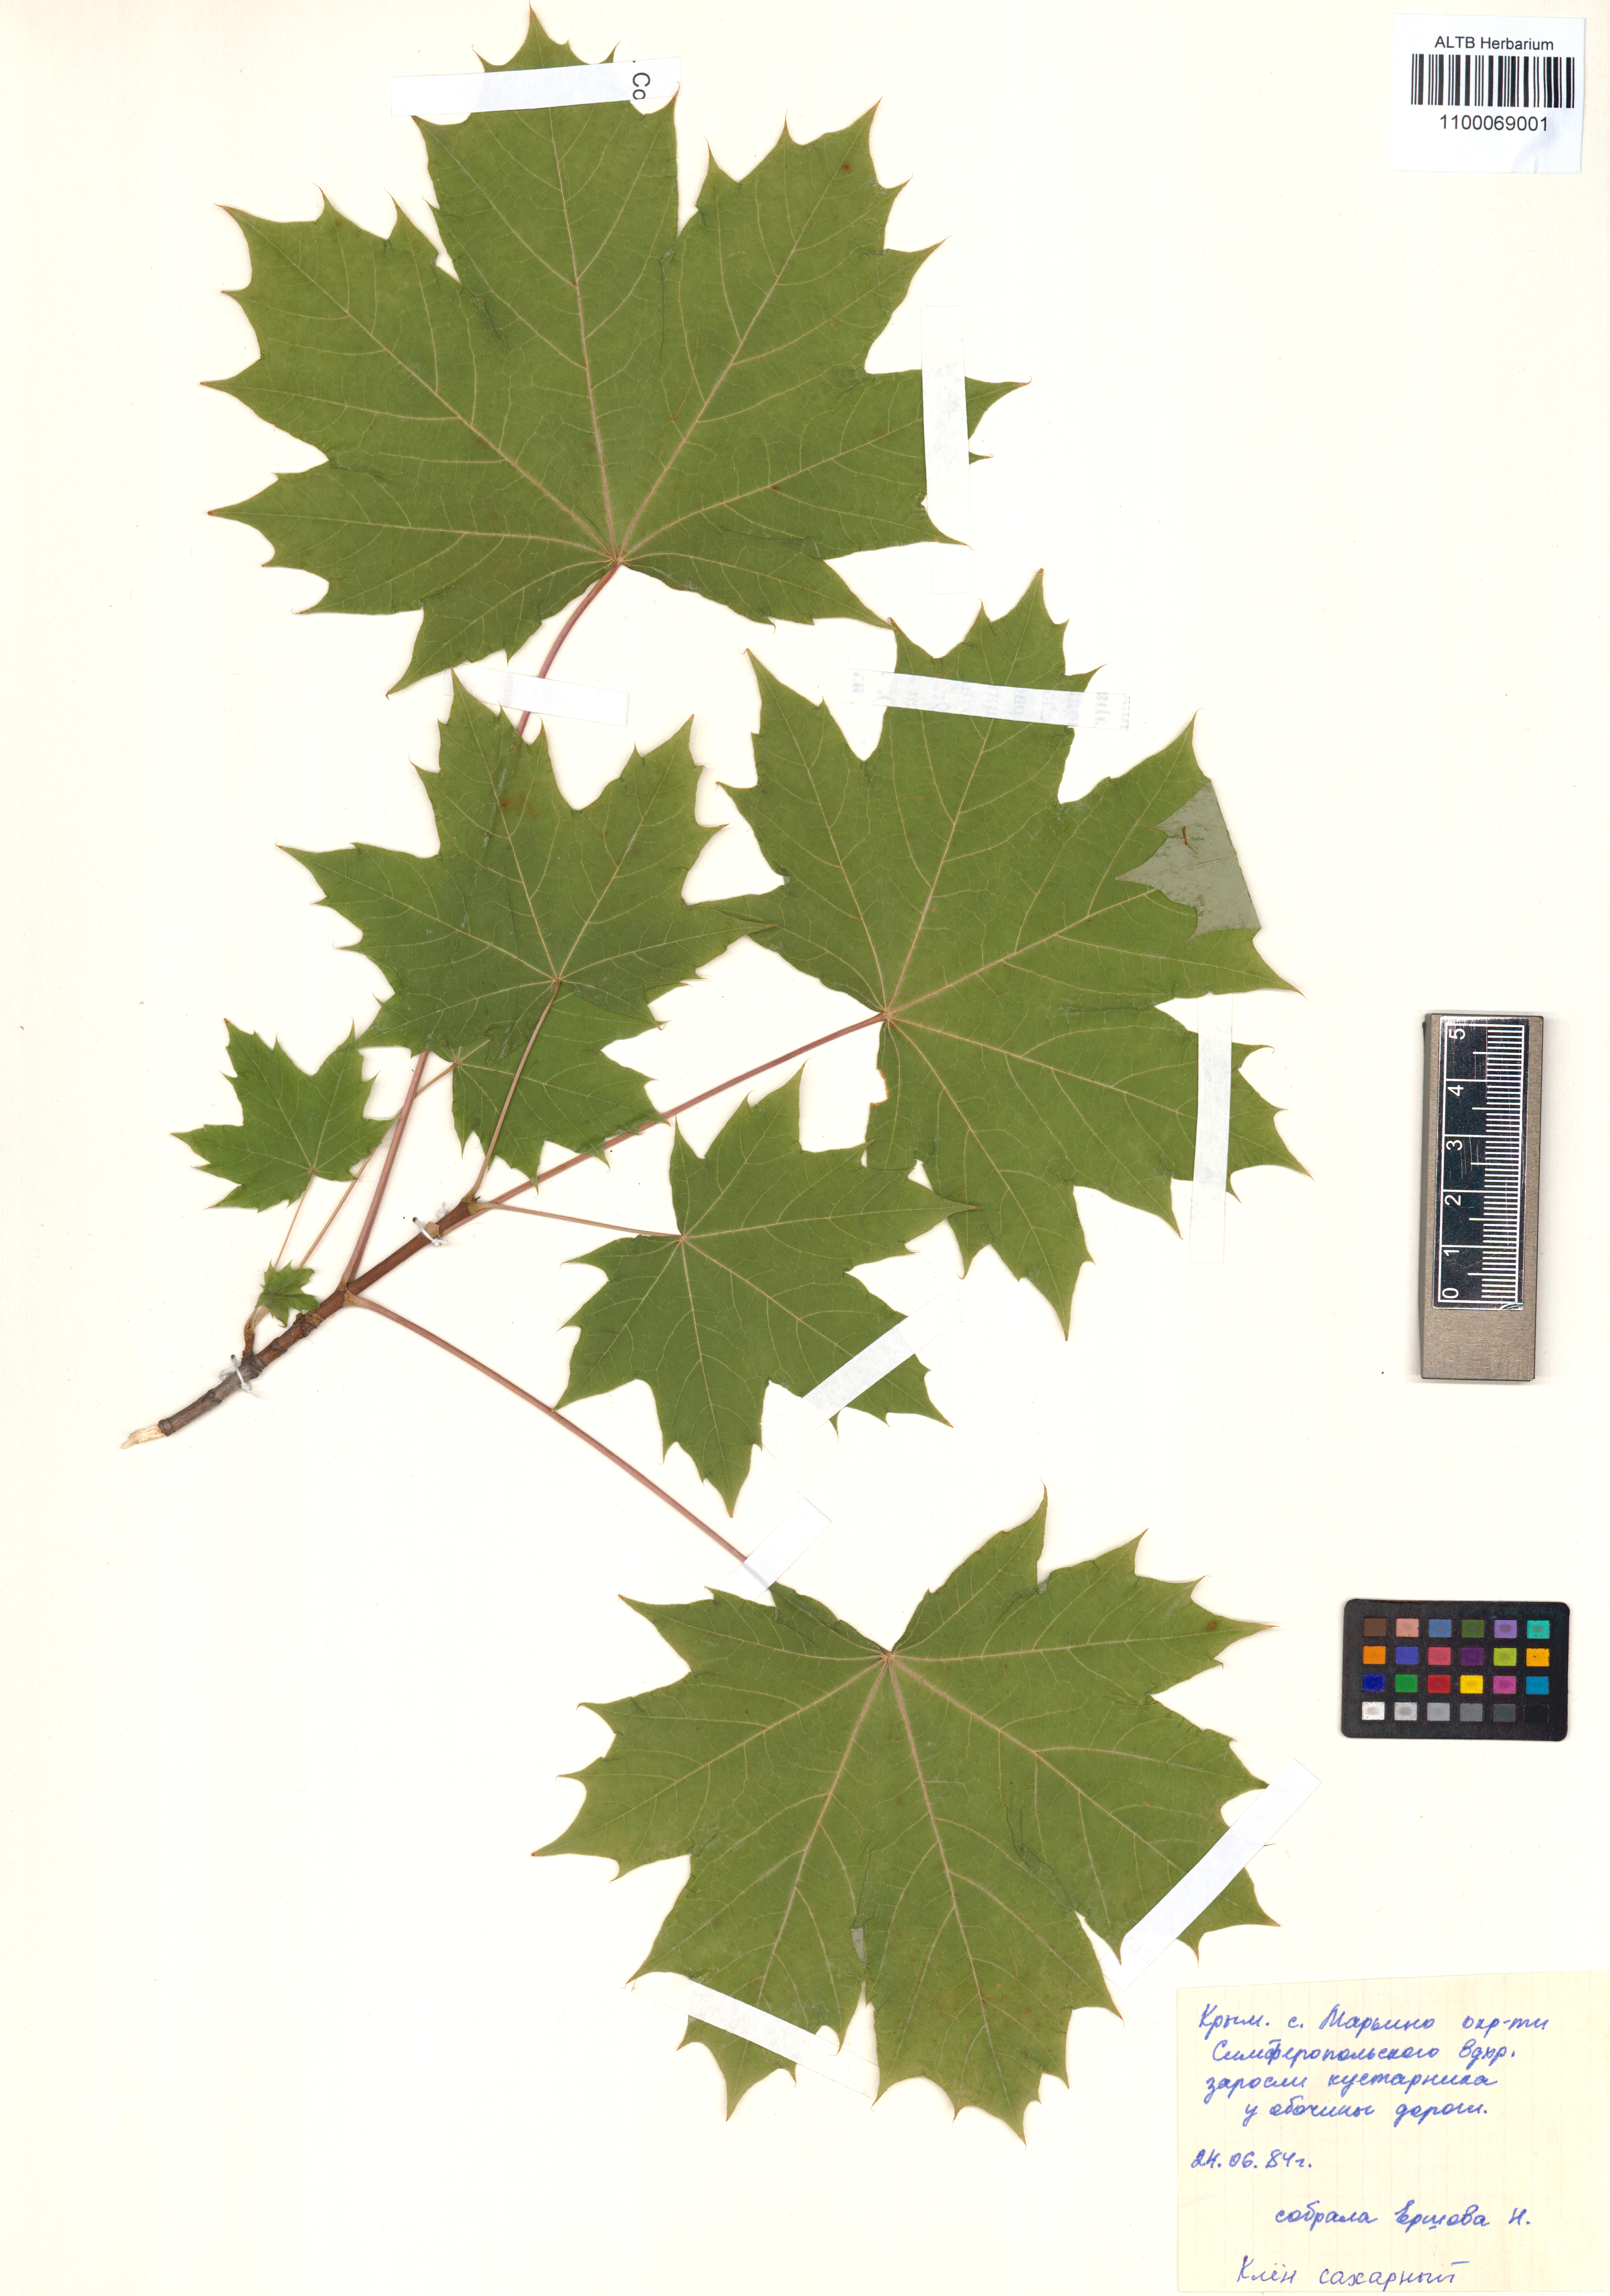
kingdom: Plantae
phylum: Tracheophyta
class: Magnoliopsida
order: Sapindales
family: Sapindaceae
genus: Acer
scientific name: Acer saccharinum
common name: Silver maple
